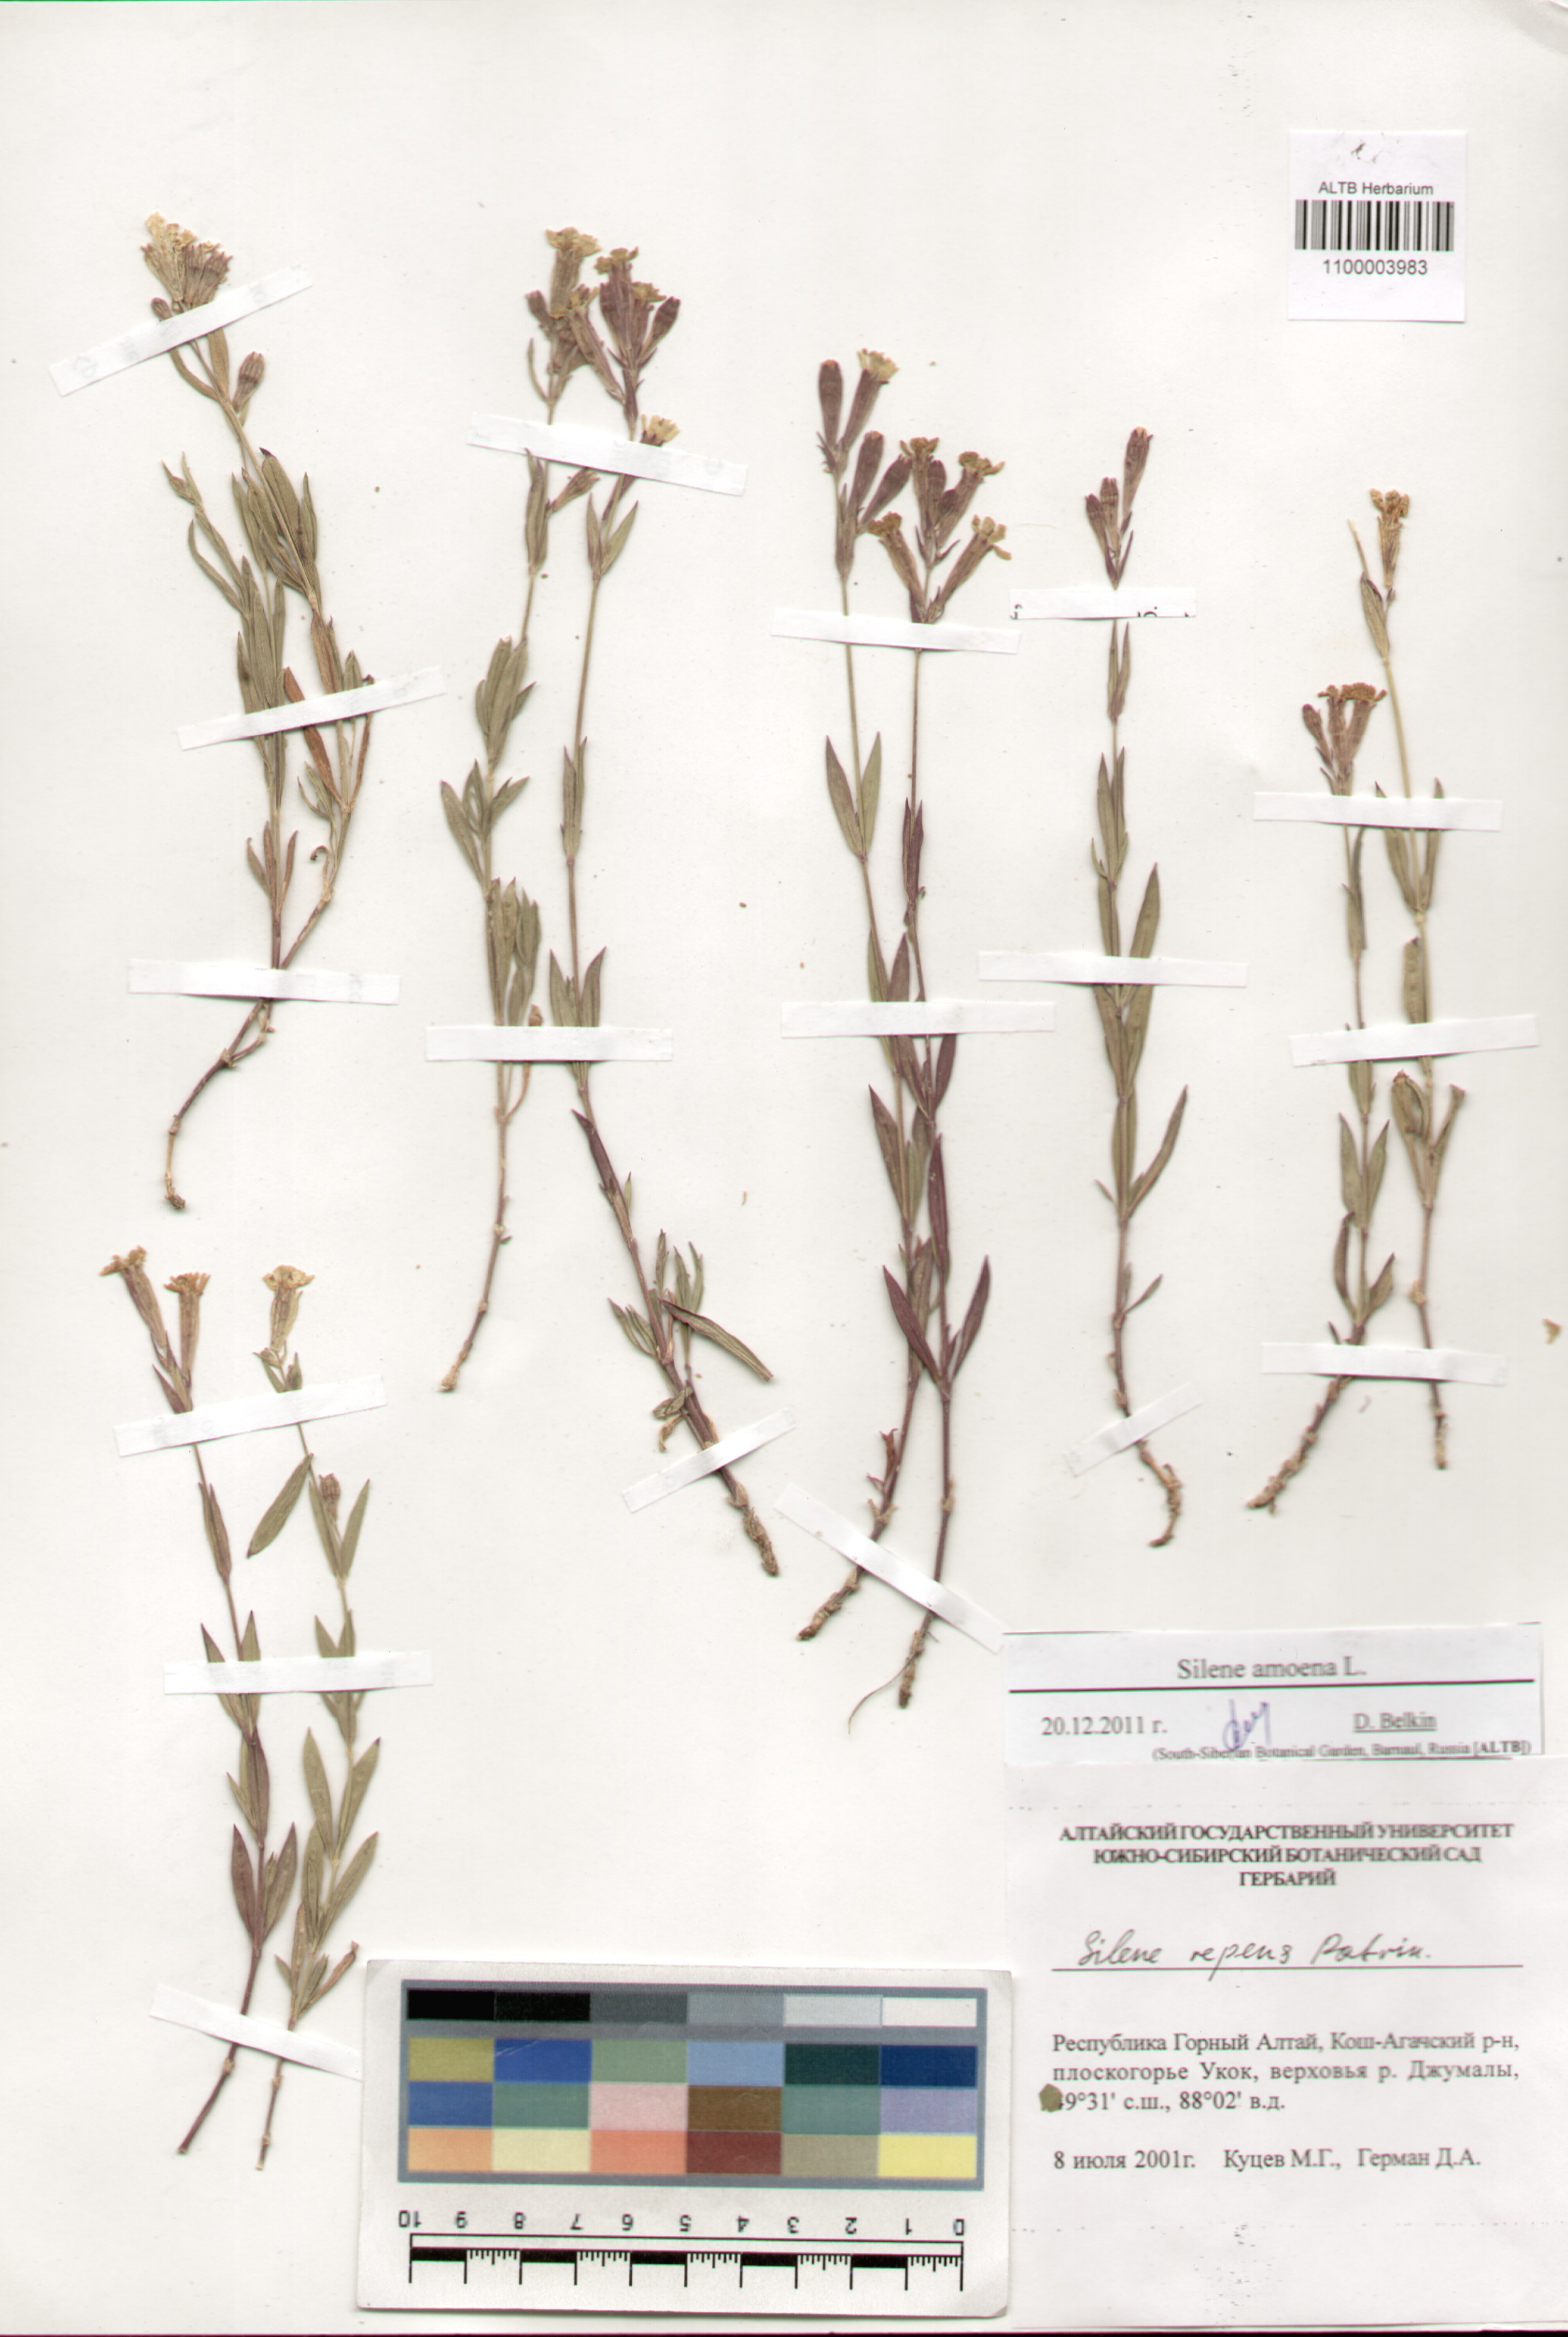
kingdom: Plantae
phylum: Tracheophyta
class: Magnoliopsida
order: Caryophyllales
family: Caryophyllaceae
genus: Silene
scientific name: Silene amoena
